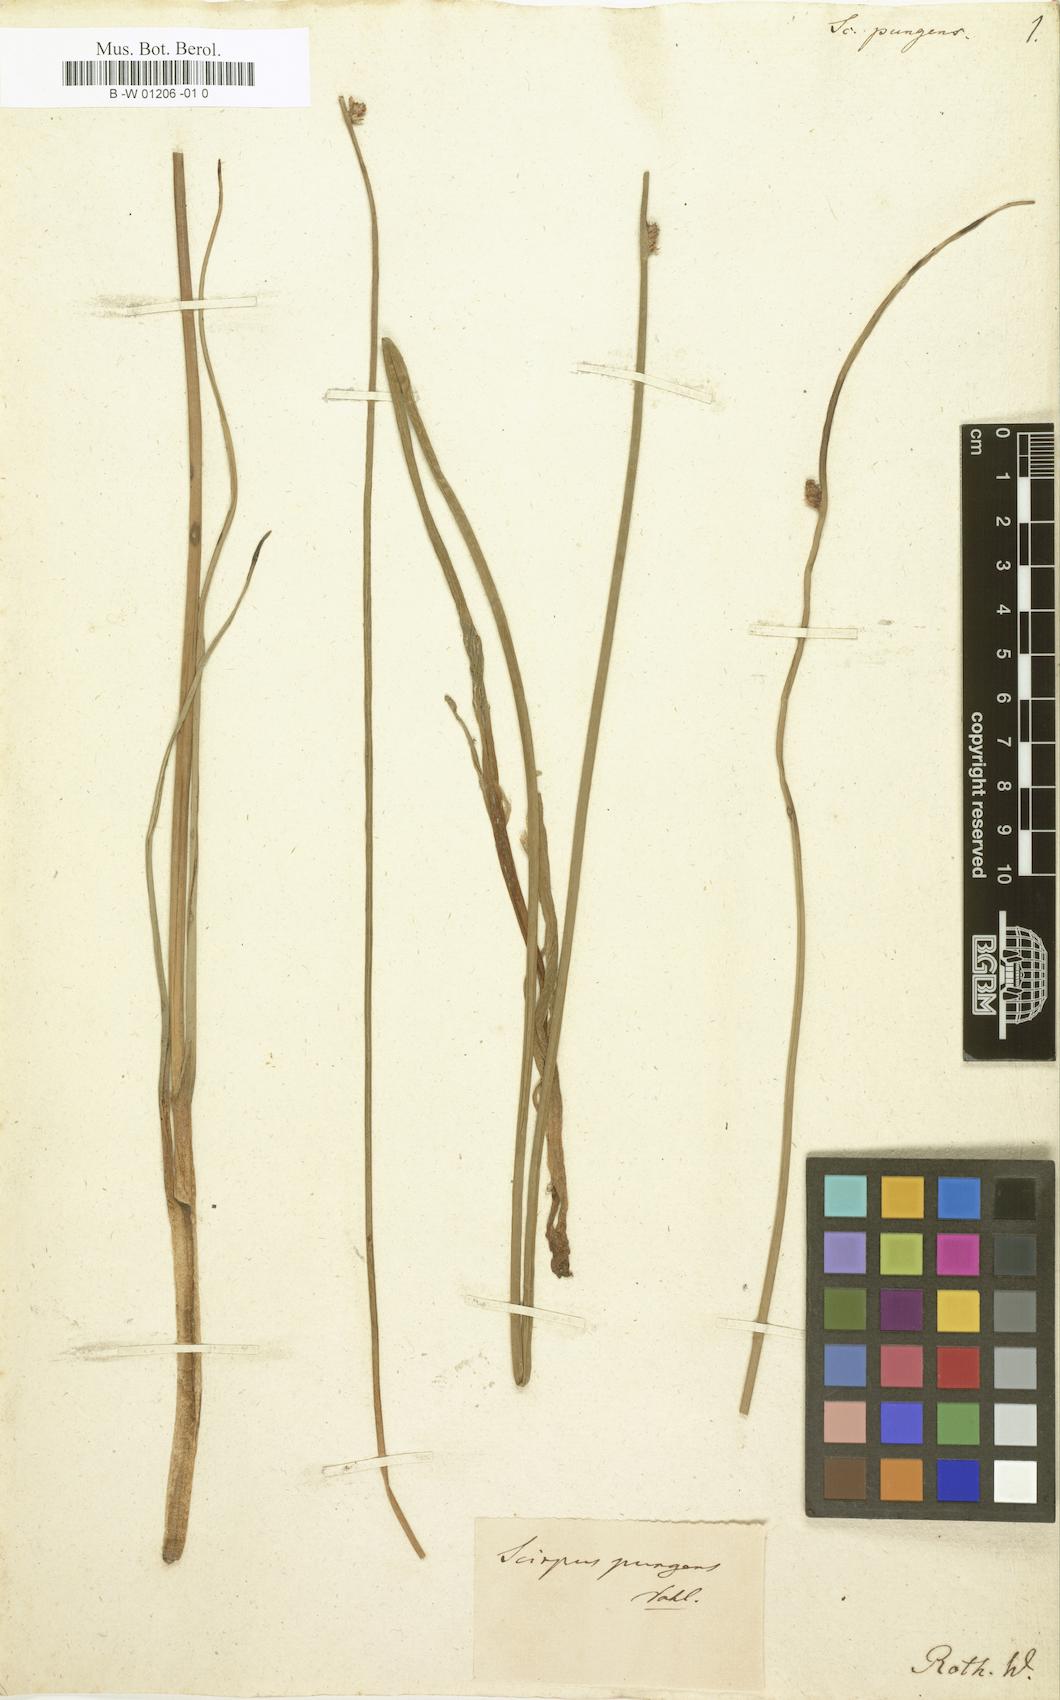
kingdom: Plantae
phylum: Tracheophyta
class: Liliopsida
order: Poales
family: Cyperaceae
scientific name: Cyperaceae
